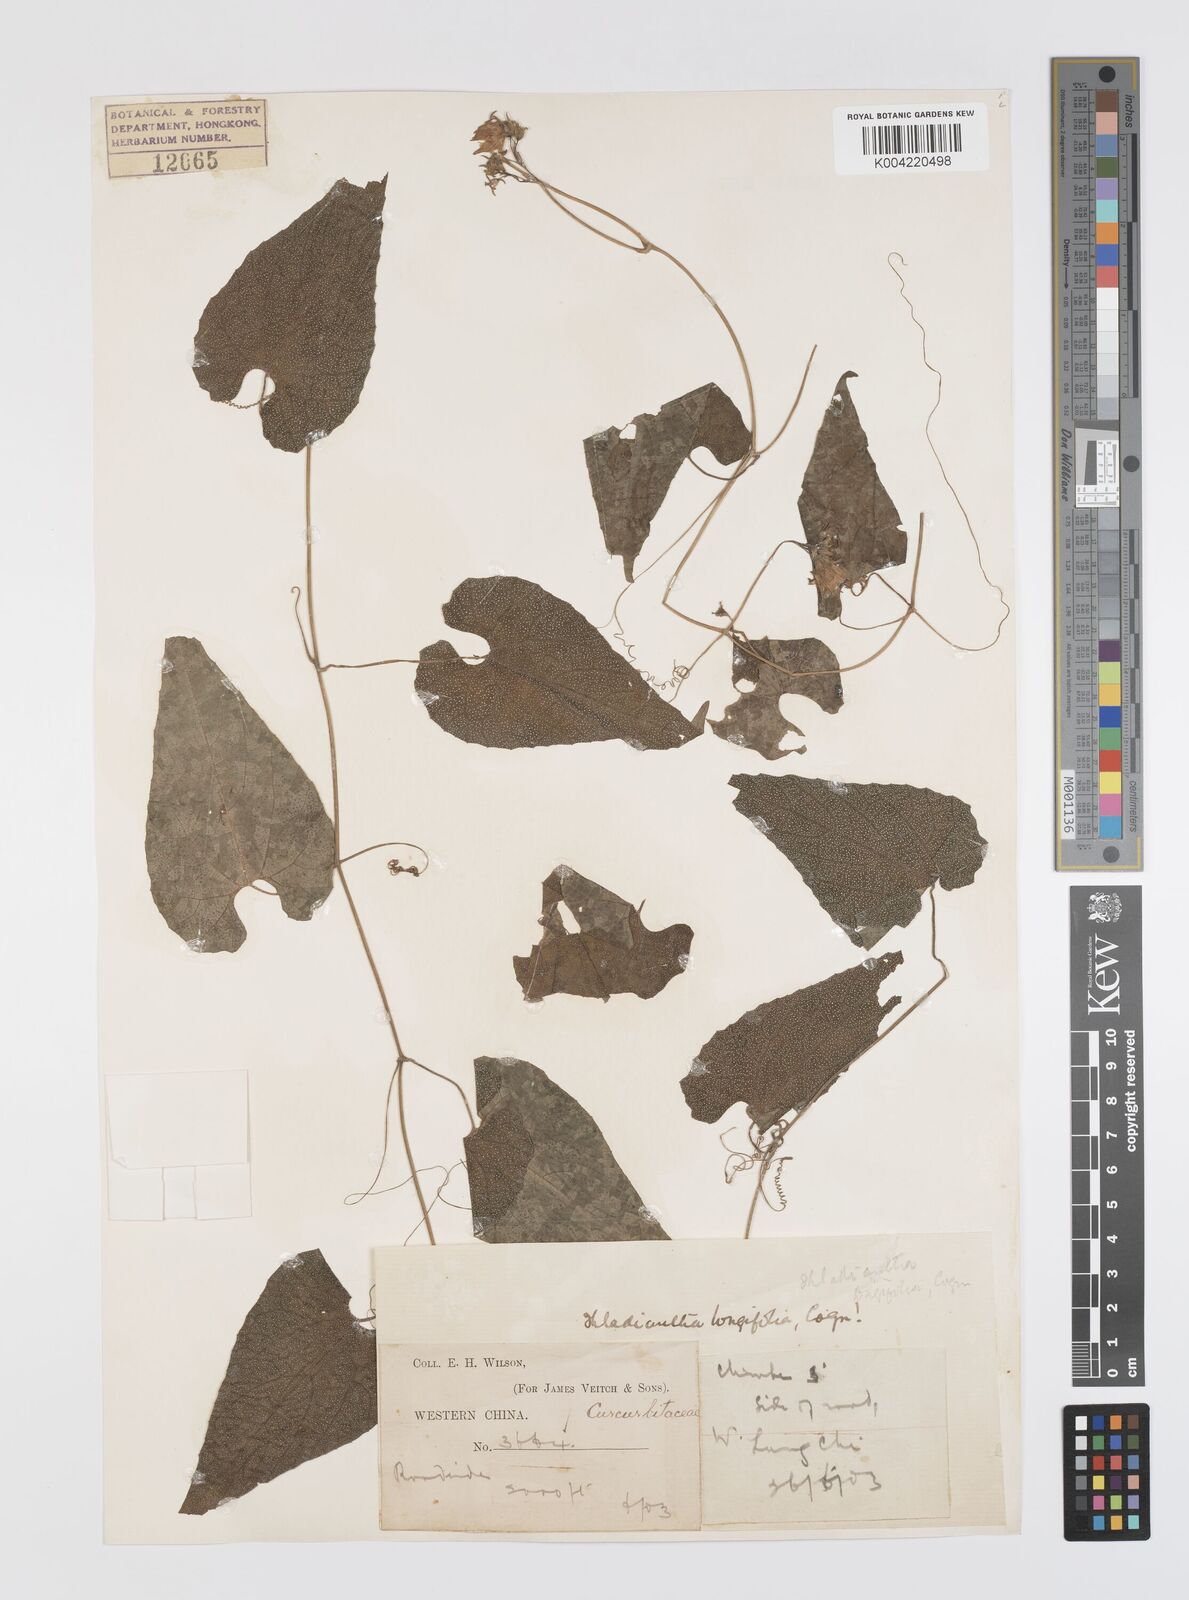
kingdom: Plantae
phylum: Tracheophyta
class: Magnoliopsida
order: Cucurbitales
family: Cucurbitaceae
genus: Thladiantha
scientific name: Thladiantha longifolia
